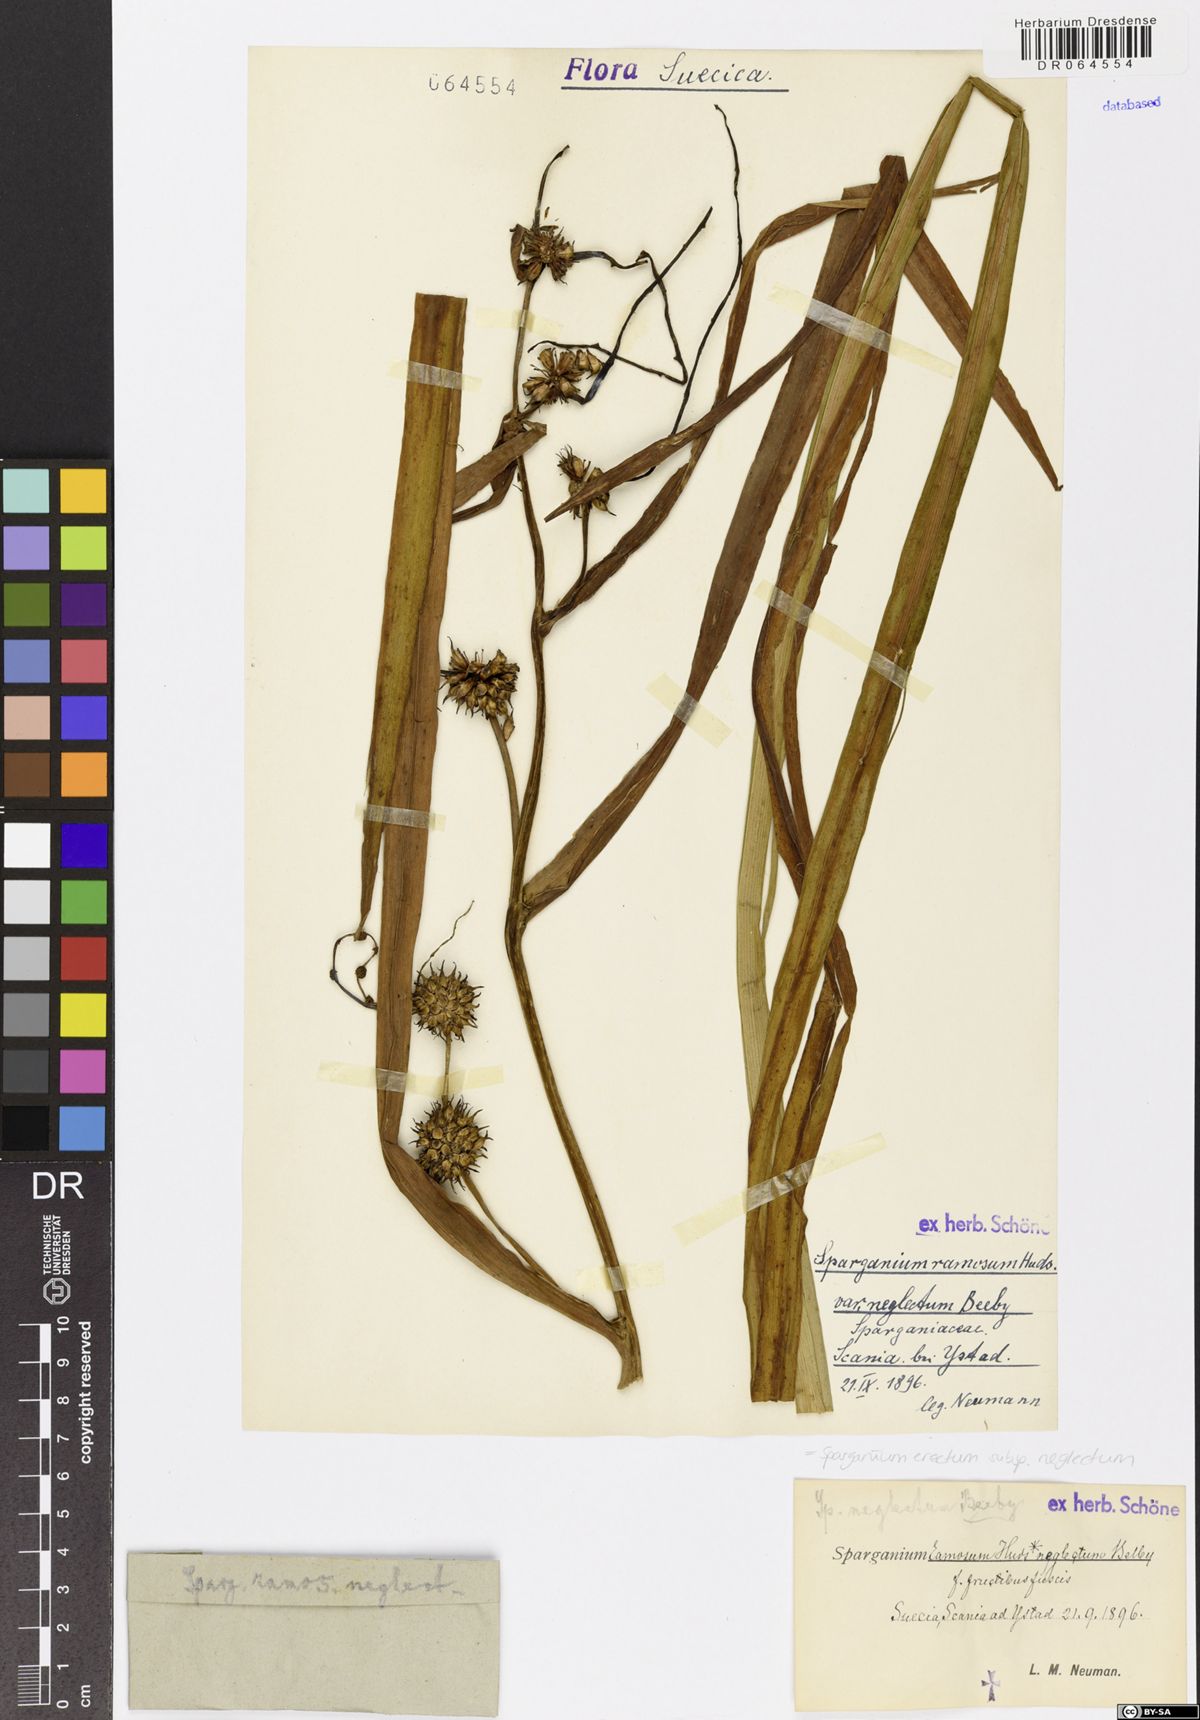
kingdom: Plantae
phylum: Tracheophyta
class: Liliopsida
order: Poales
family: Typhaceae
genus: Sparganium
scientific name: Sparganium erectum
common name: Branched bur-reed
